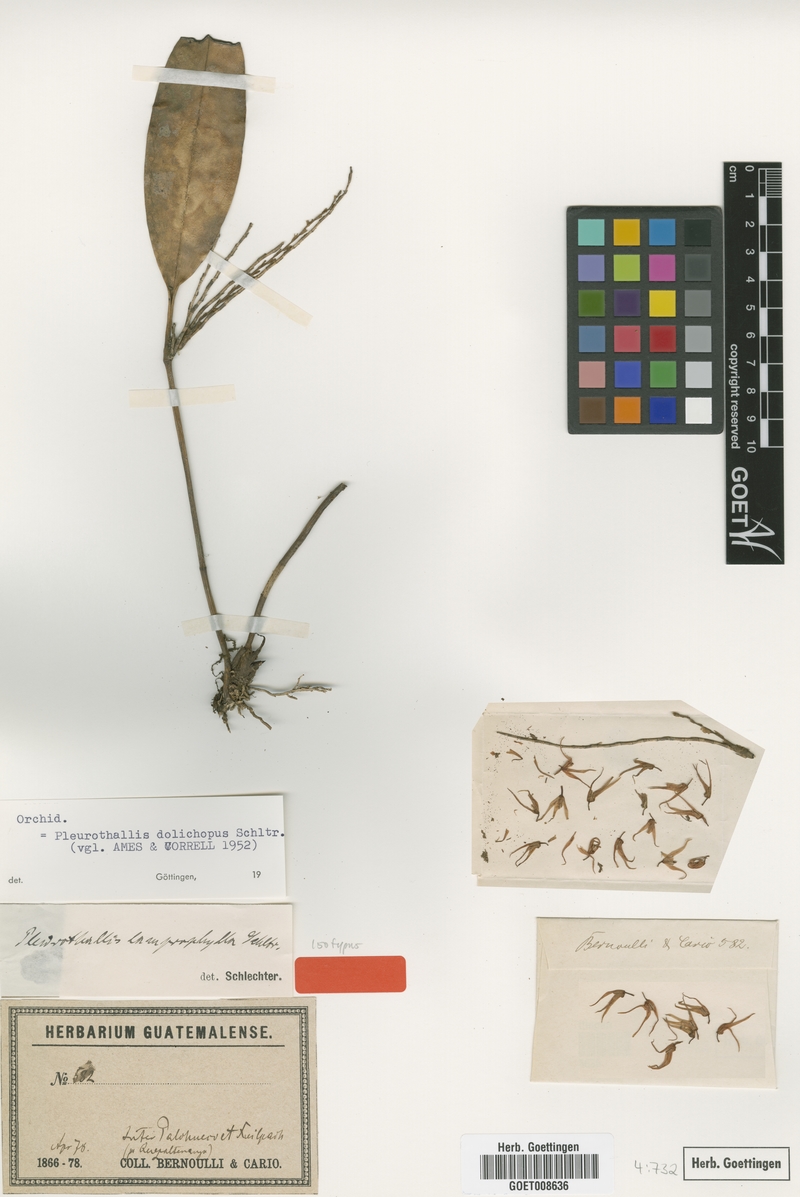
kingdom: Plantae
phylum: Tracheophyta
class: Liliopsida
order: Asparagales
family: Orchidaceae
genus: Stelis
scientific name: Stelis poasensis
